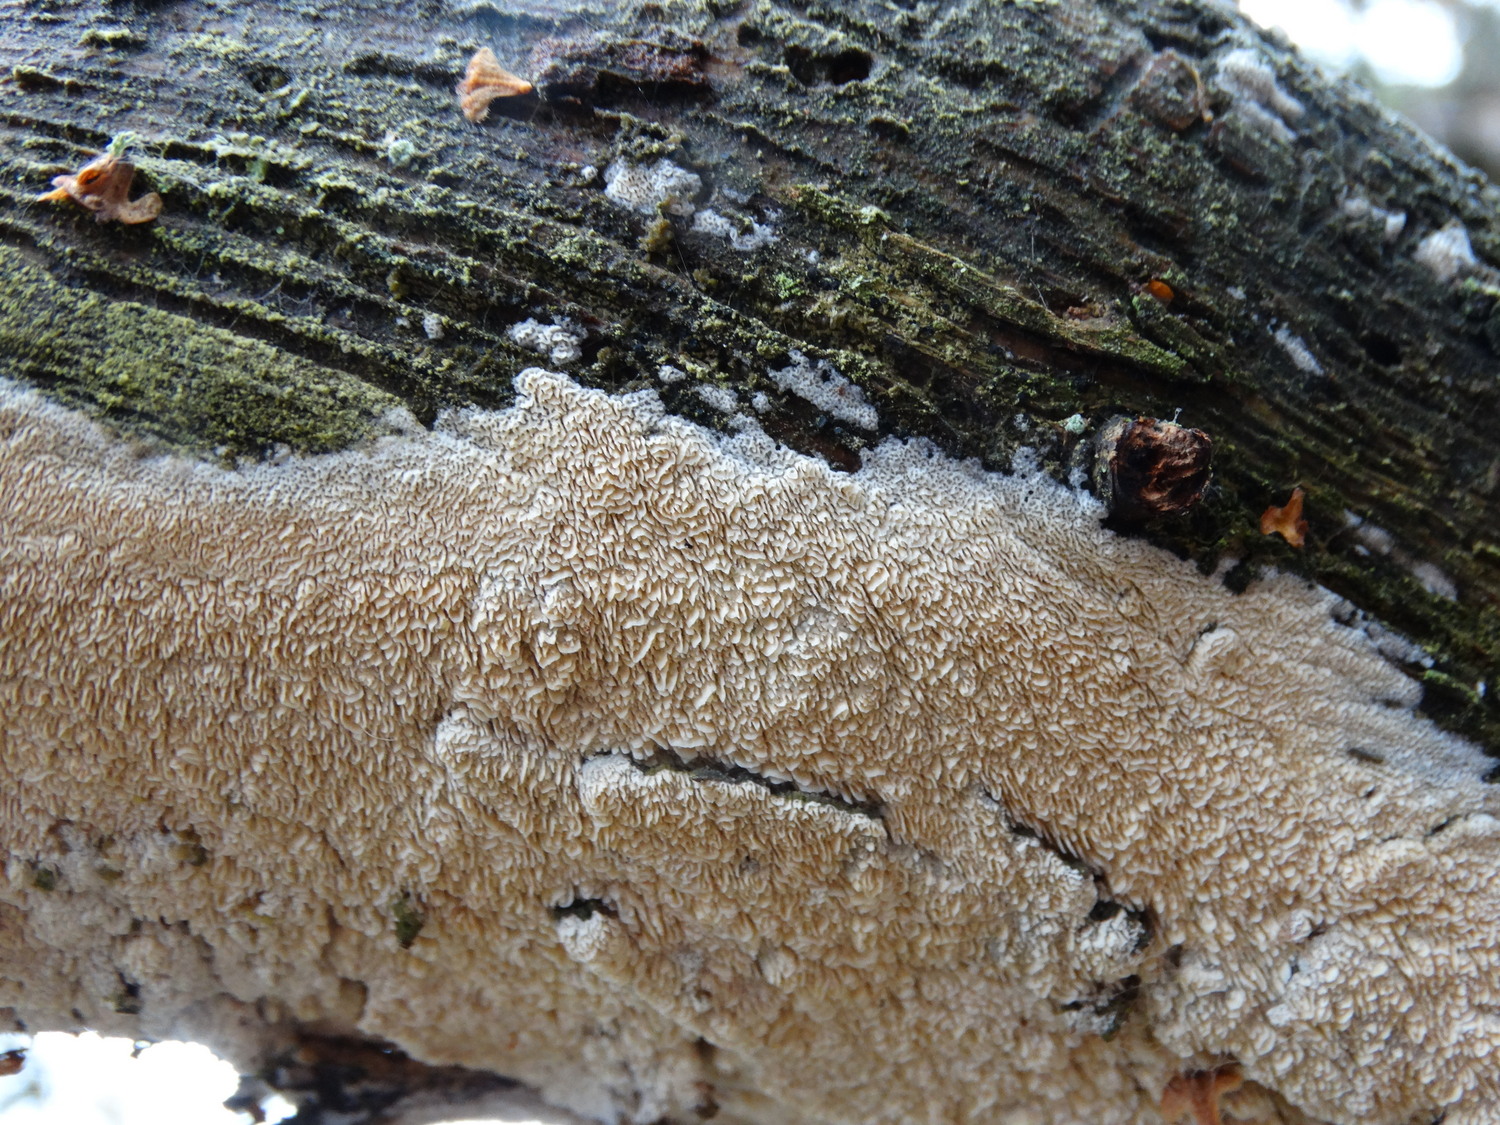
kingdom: Fungi
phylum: Basidiomycota
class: Agaricomycetes
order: Hymenochaetales
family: Schizoporaceae
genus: Xylodon
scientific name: Xylodon subtropicus
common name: labyrint-tandsvamp
